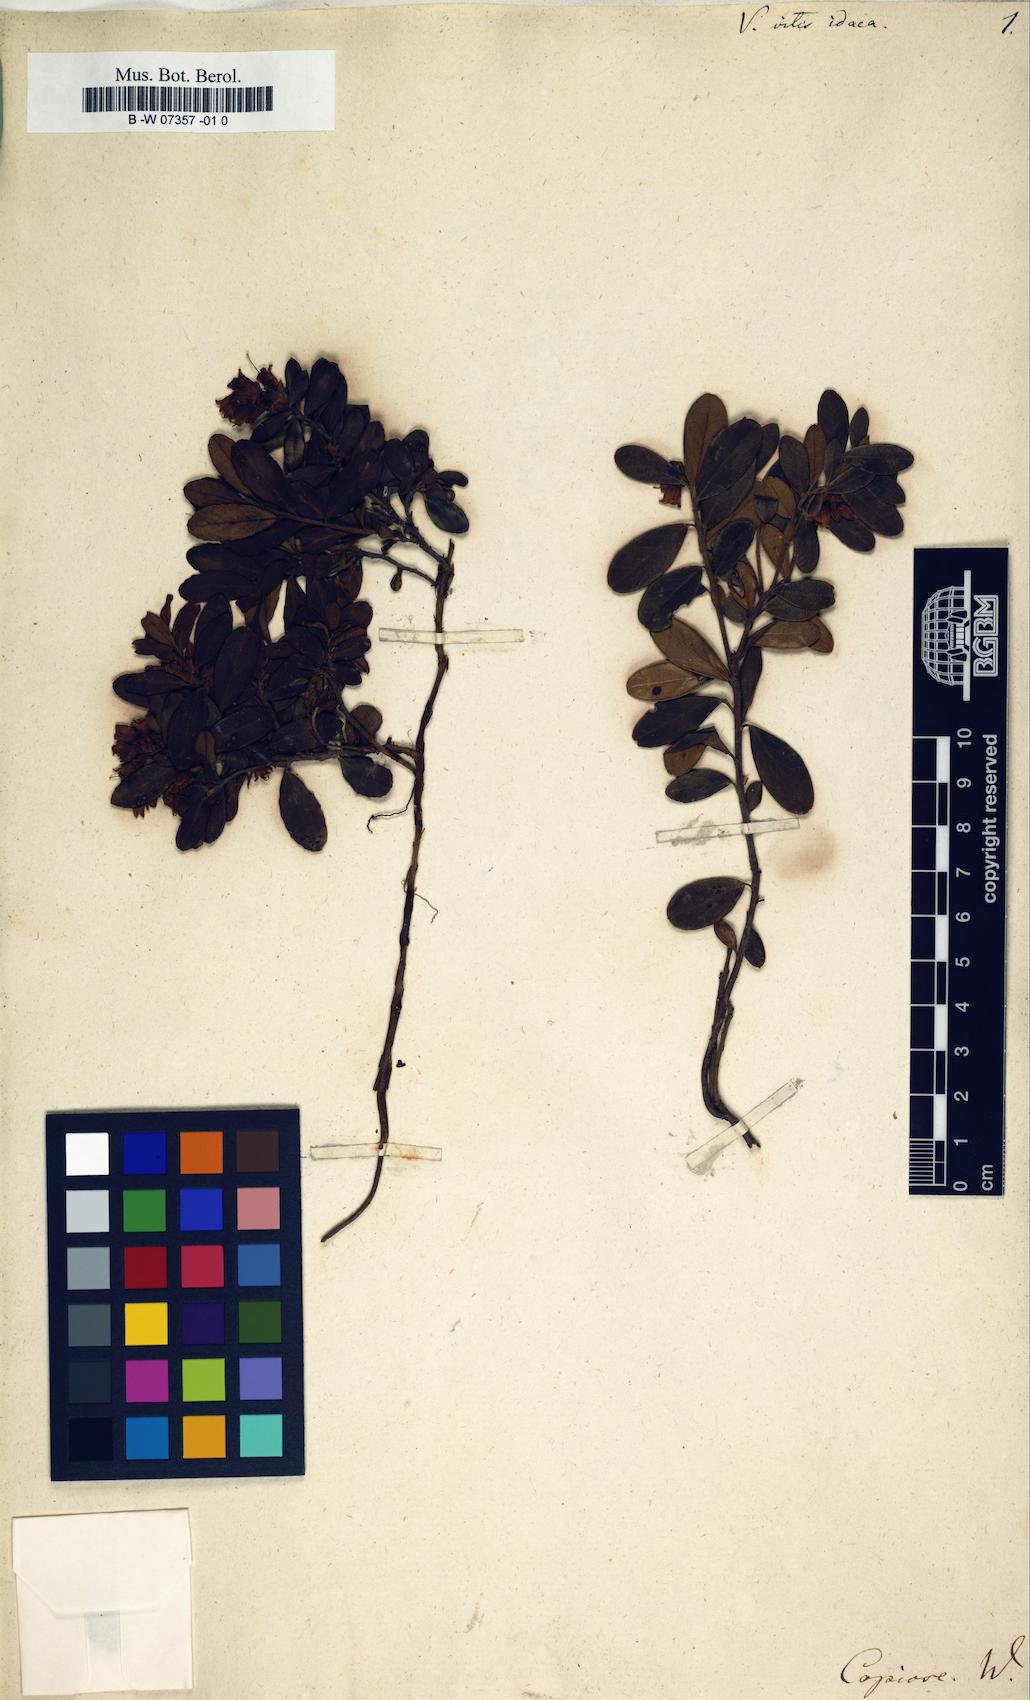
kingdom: Plantae
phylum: Tracheophyta
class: Magnoliopsida
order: Ericales
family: Ericaceae
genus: Vaccinium
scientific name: Vaccinium vitis-idaea
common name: Cowberry
